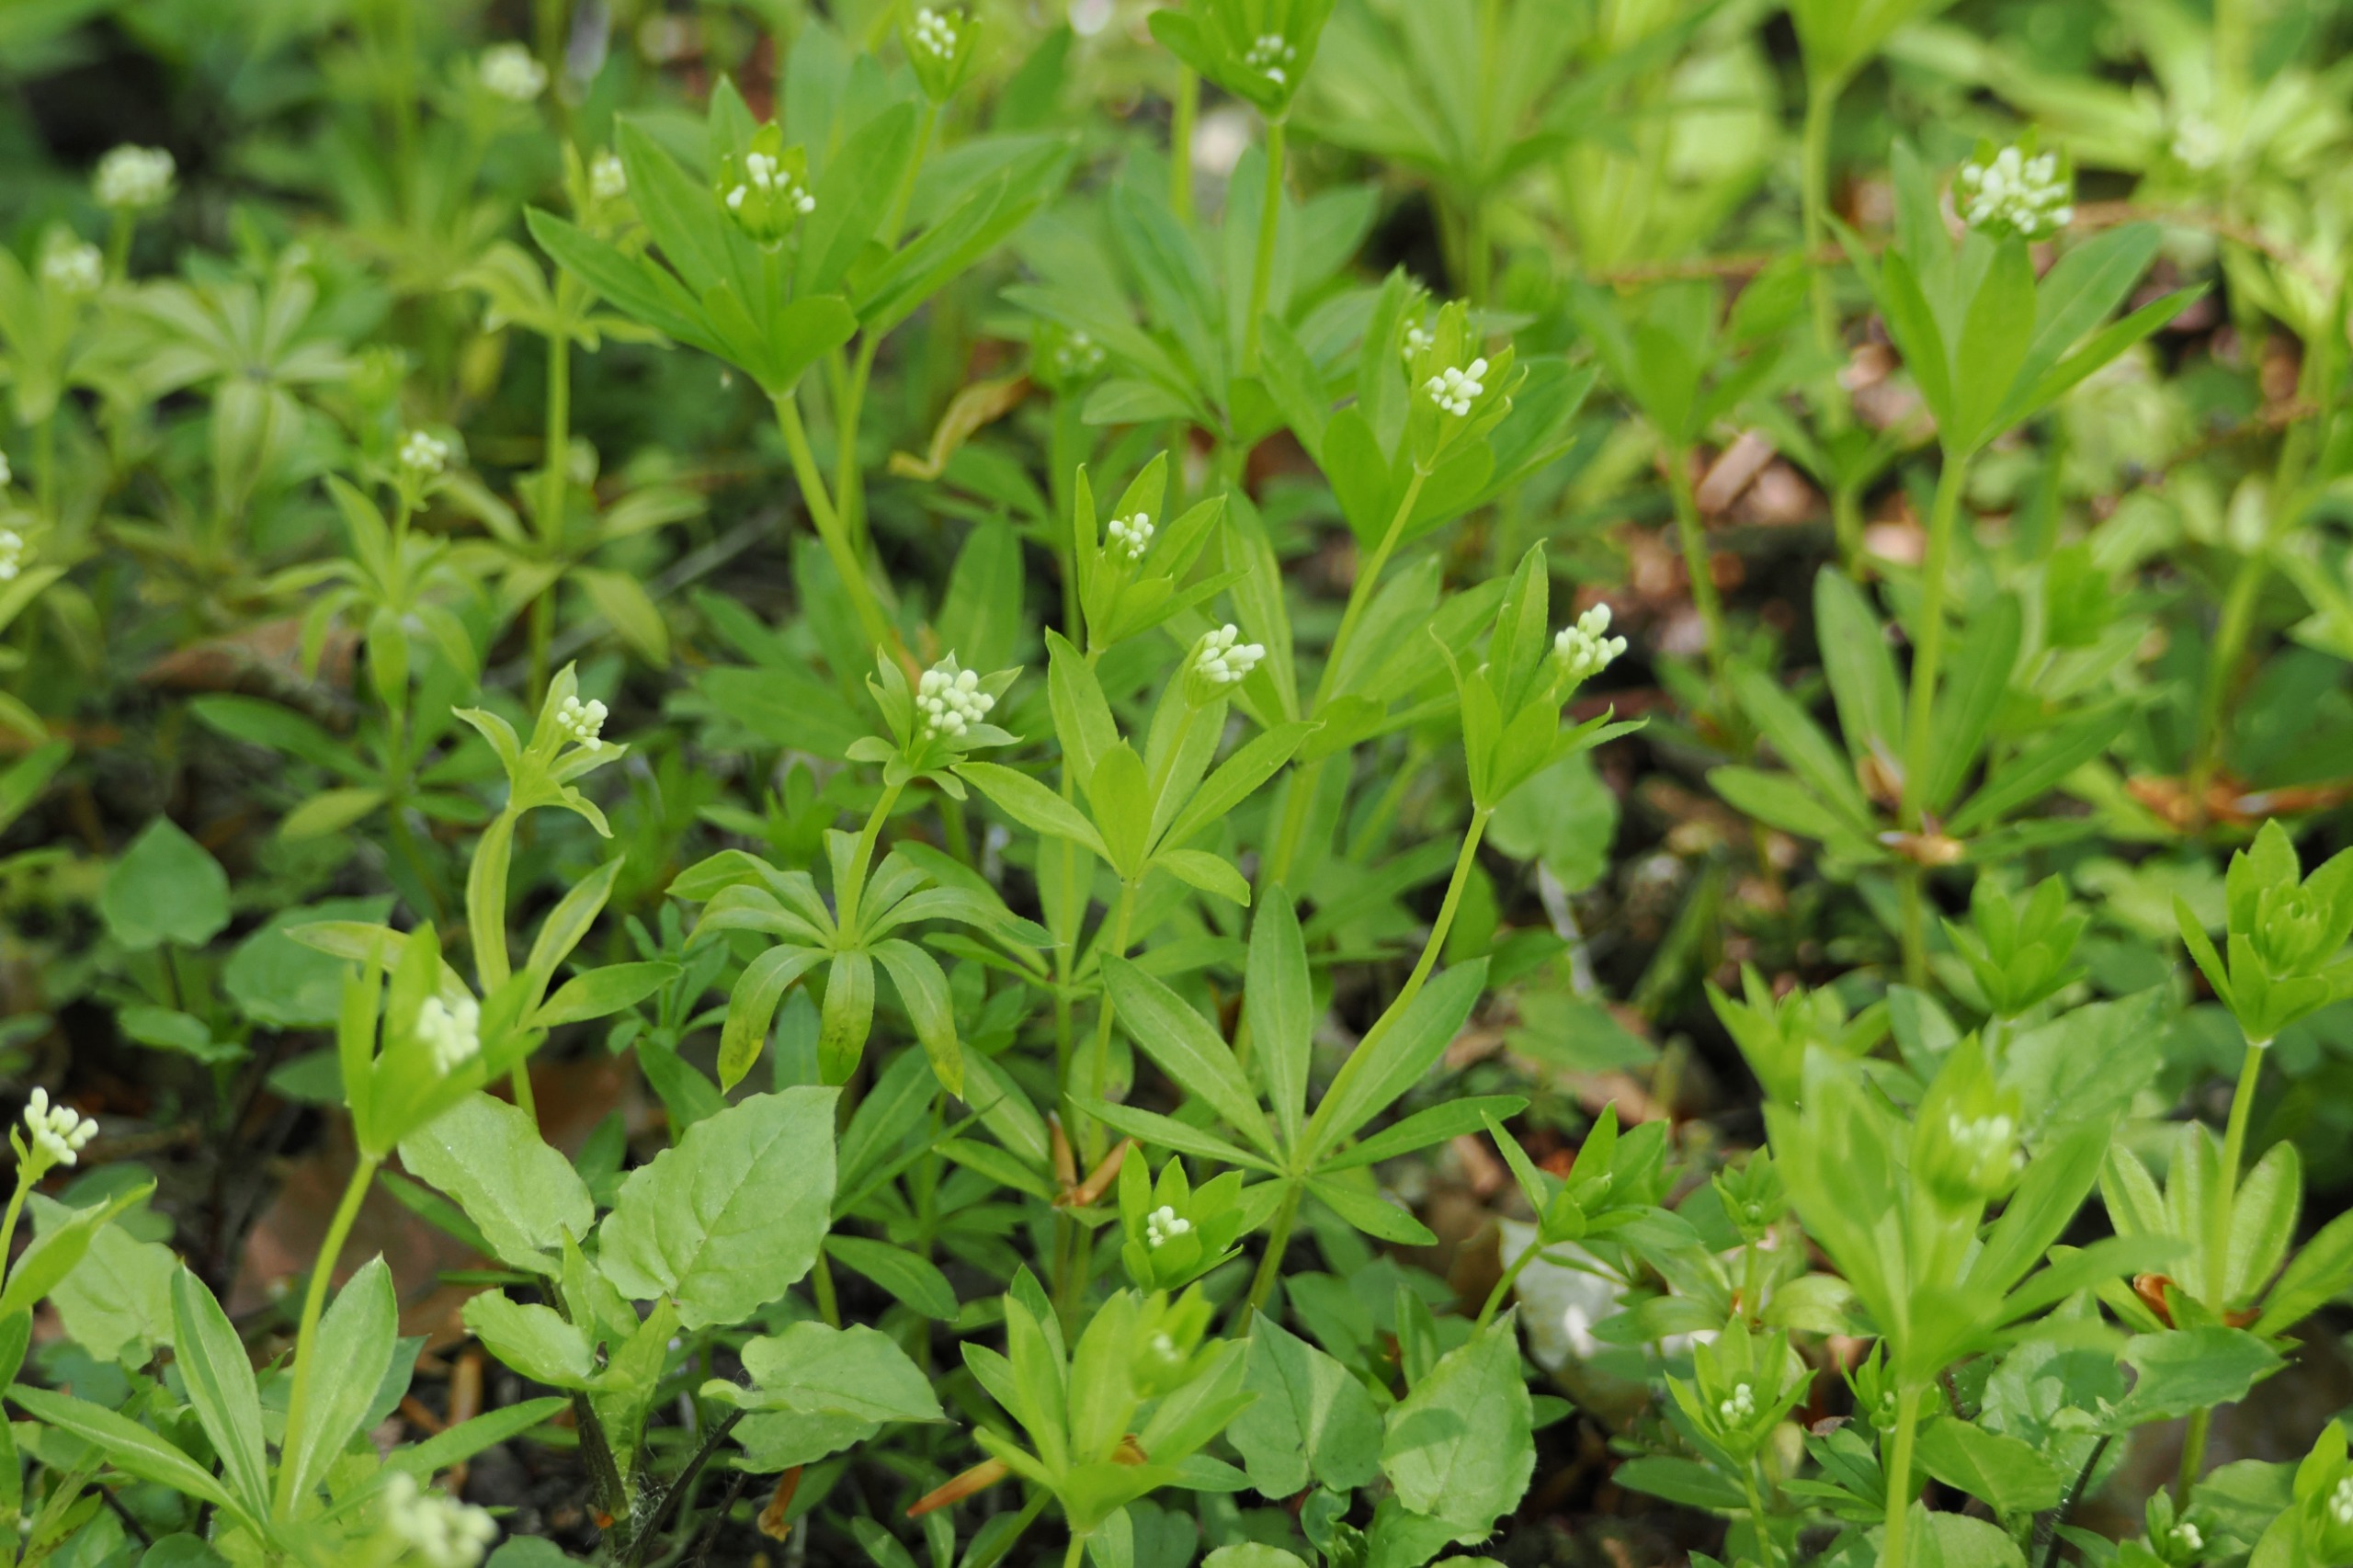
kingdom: Plantae
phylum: Tracheophyta
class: Magnoliopsida
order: Gentianales
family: Rubiaceae
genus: Galium
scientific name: Galium odoratum
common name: Skovmærke
